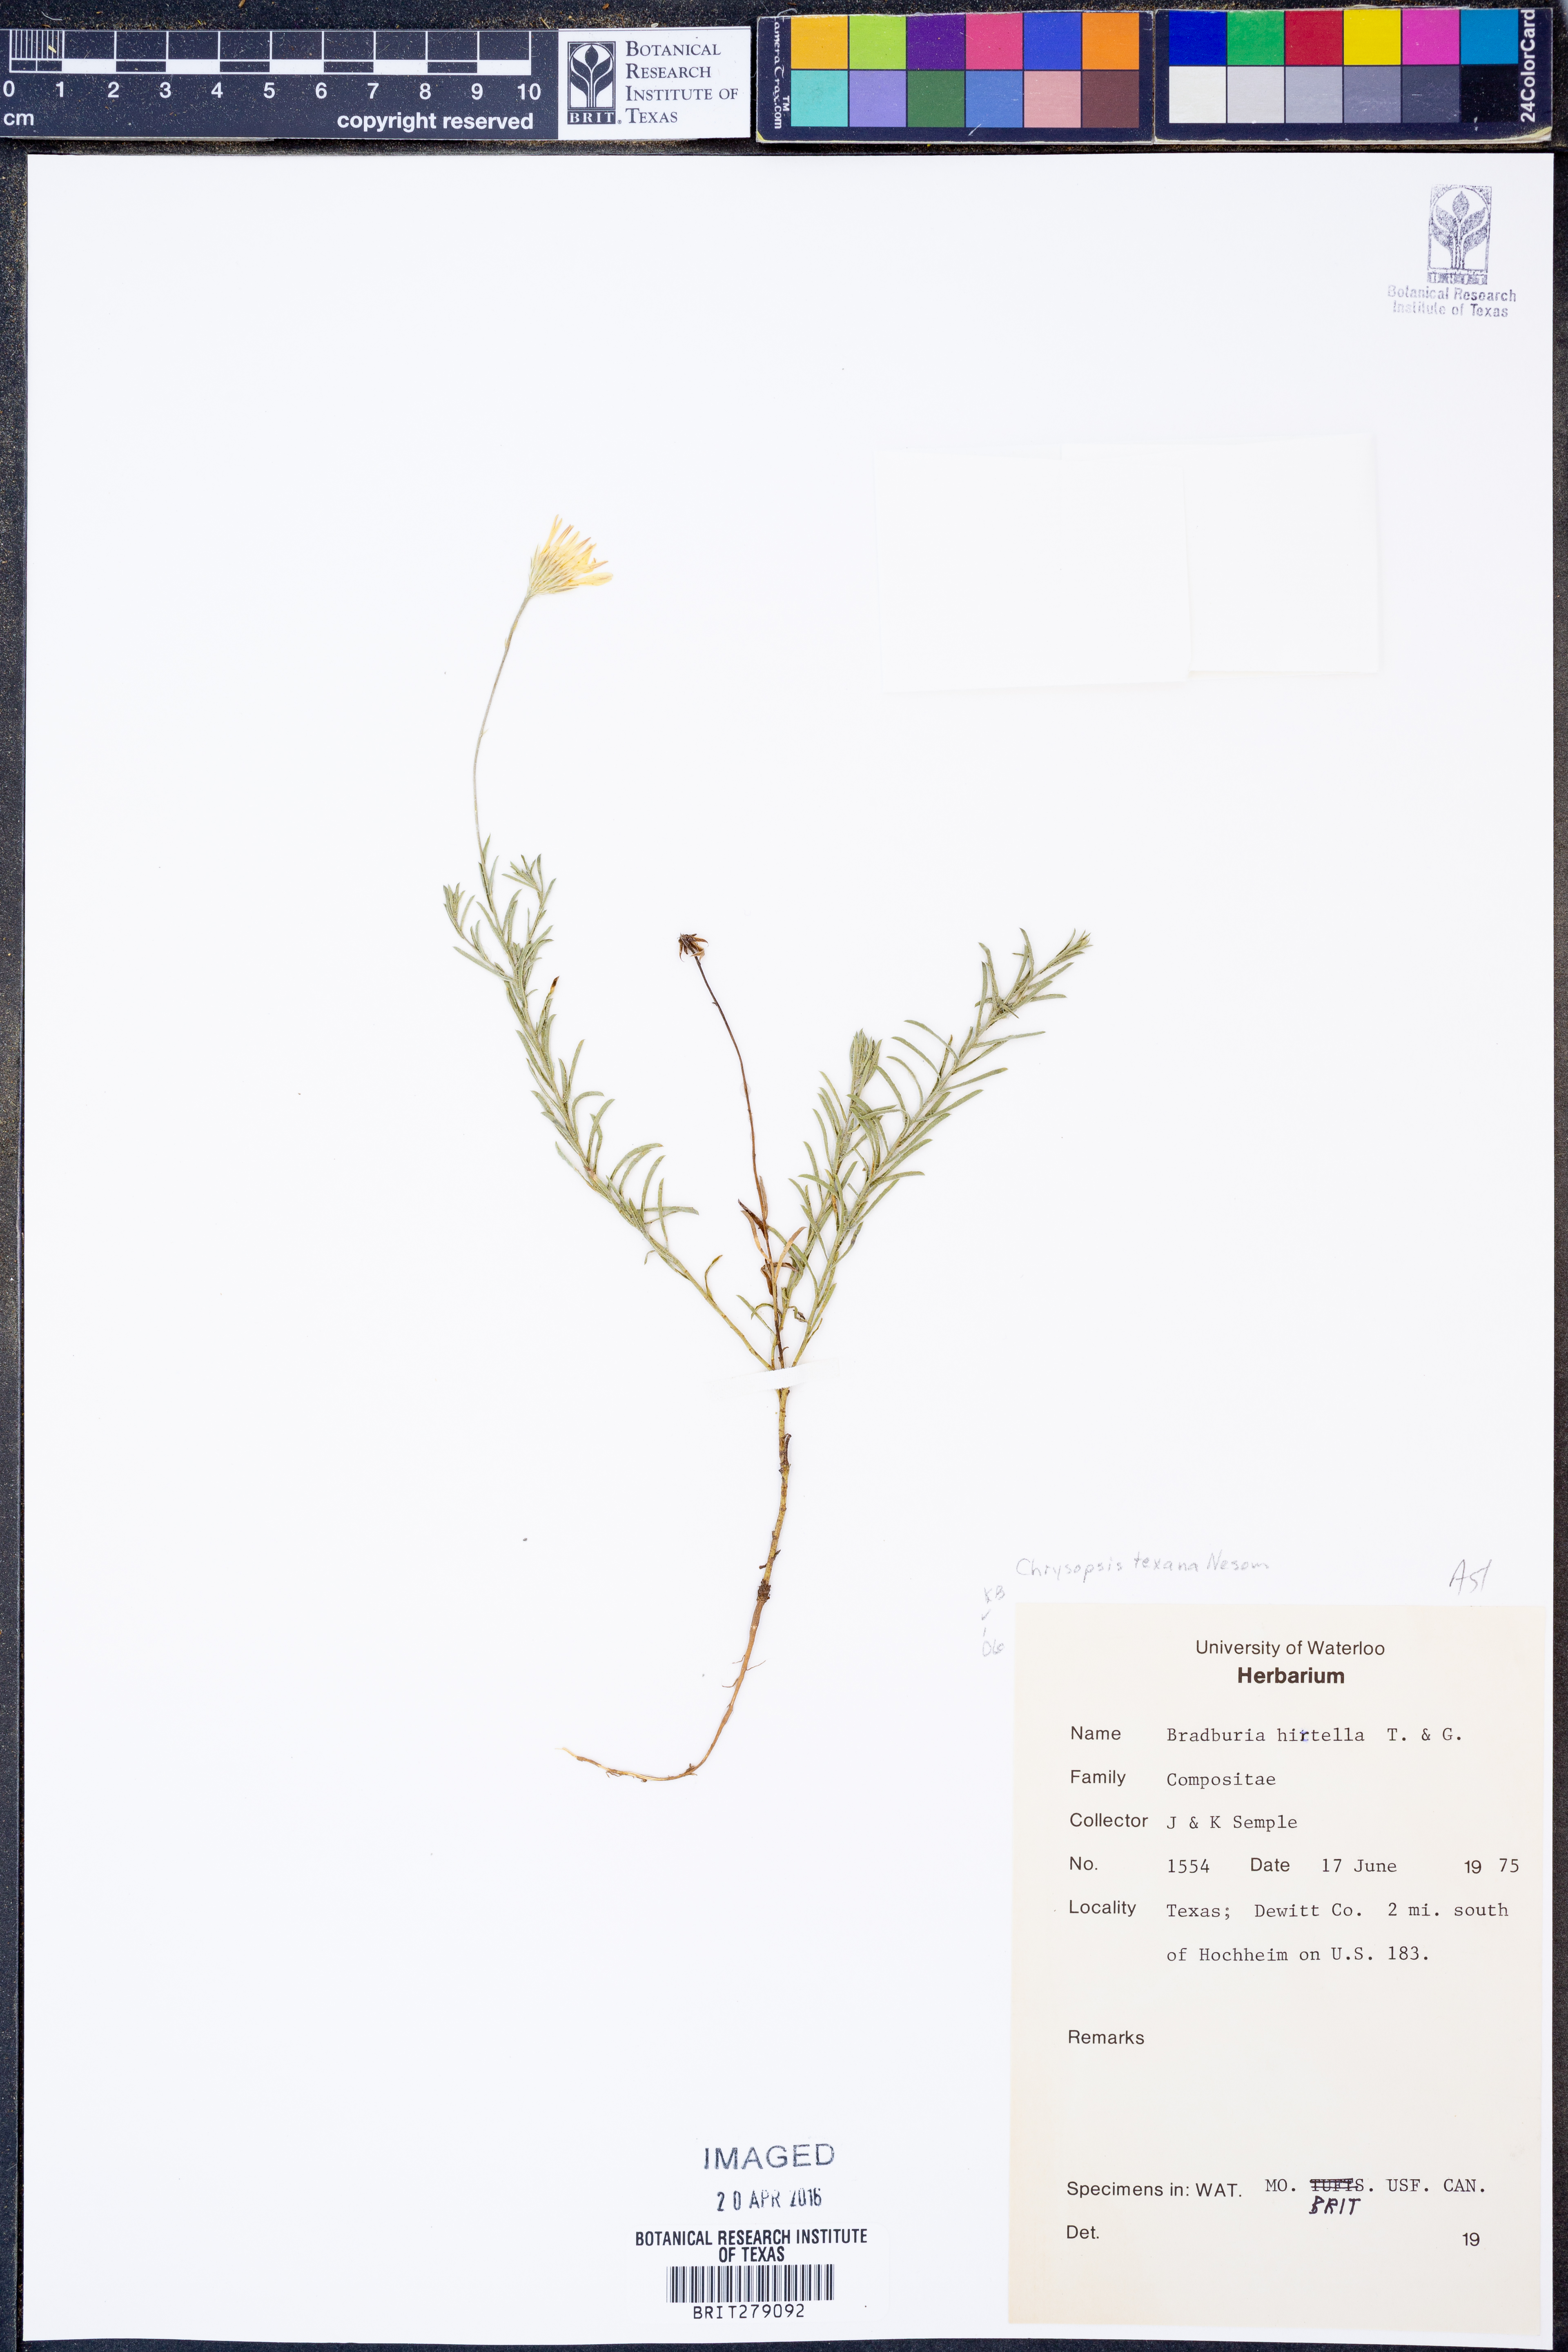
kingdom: Plantae
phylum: Tracheophyta
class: Magnoliopsida
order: Asterales
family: Asteraceae
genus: Bradburia
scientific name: Bradburia hirtella
